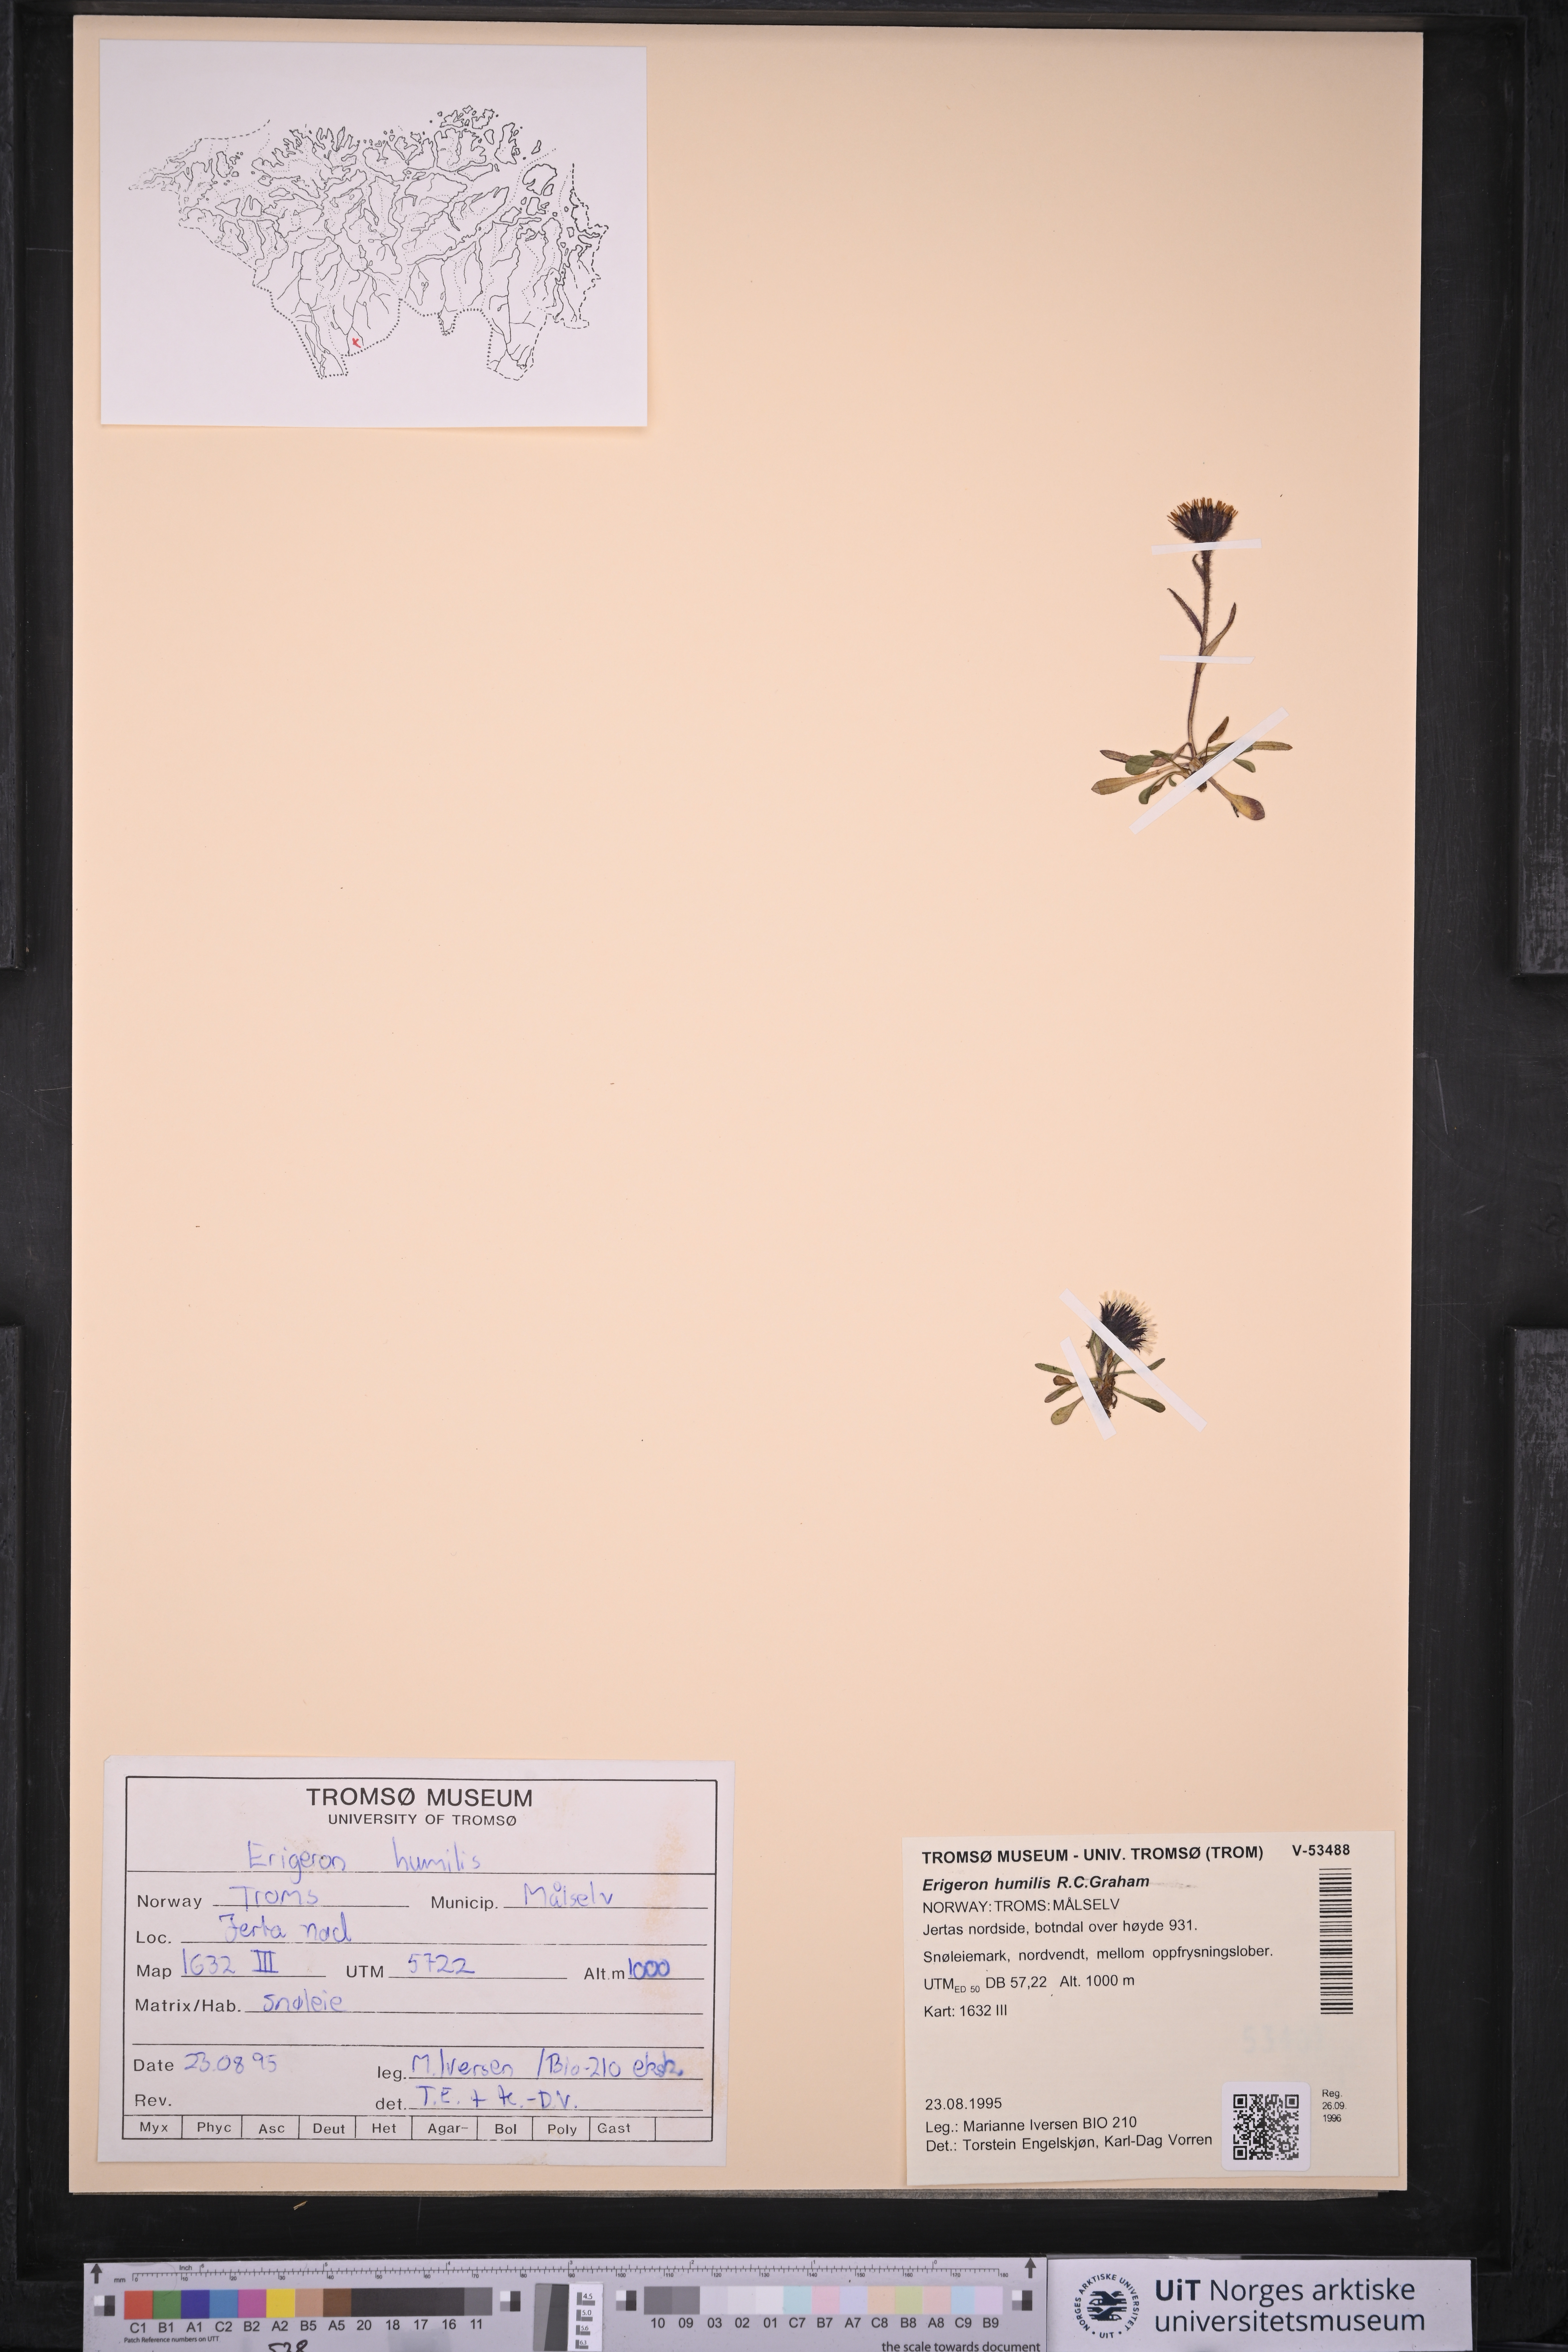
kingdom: Plantae
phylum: Tracheophyta
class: Magnoliopsida
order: Asterales
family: Asteraceae
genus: Erigeron
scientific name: Erigeron humilis
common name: Arctic-alpine fleabane
